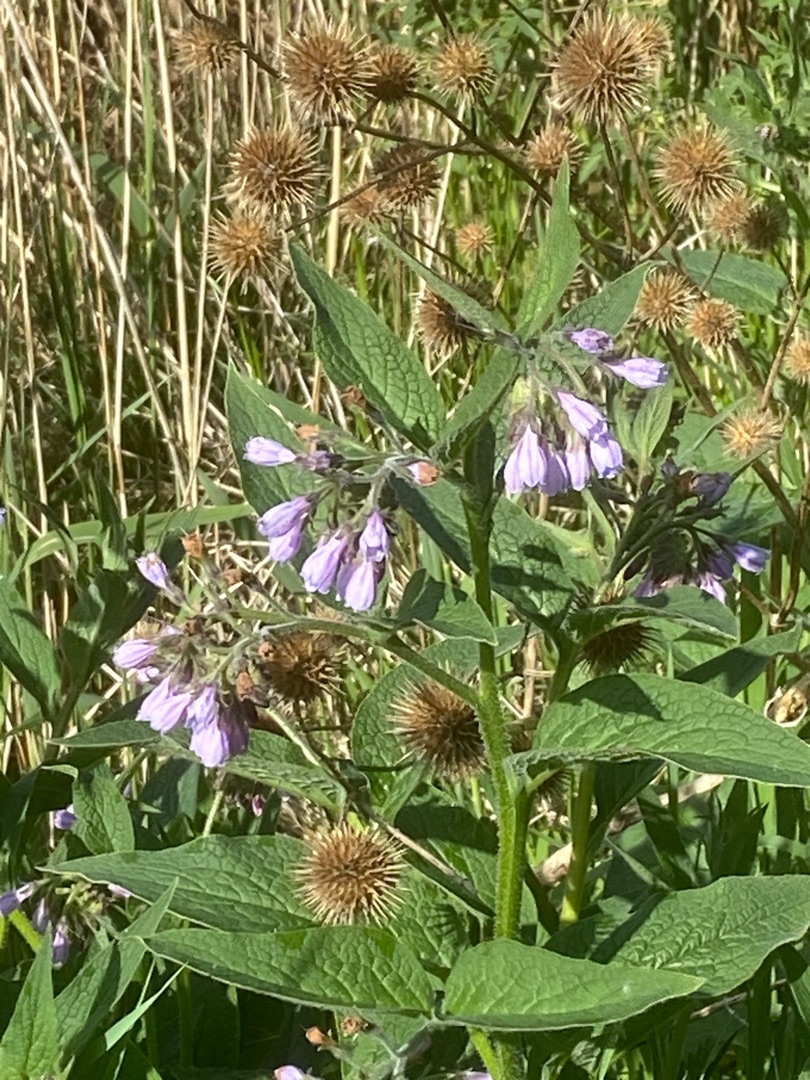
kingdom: Plantae
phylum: Tracheophyta
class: Magnoliopsida
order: Boraginales
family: Boraginaceae
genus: Symphytum
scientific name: Symphytum uplandicum
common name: Foder-kulsukker
